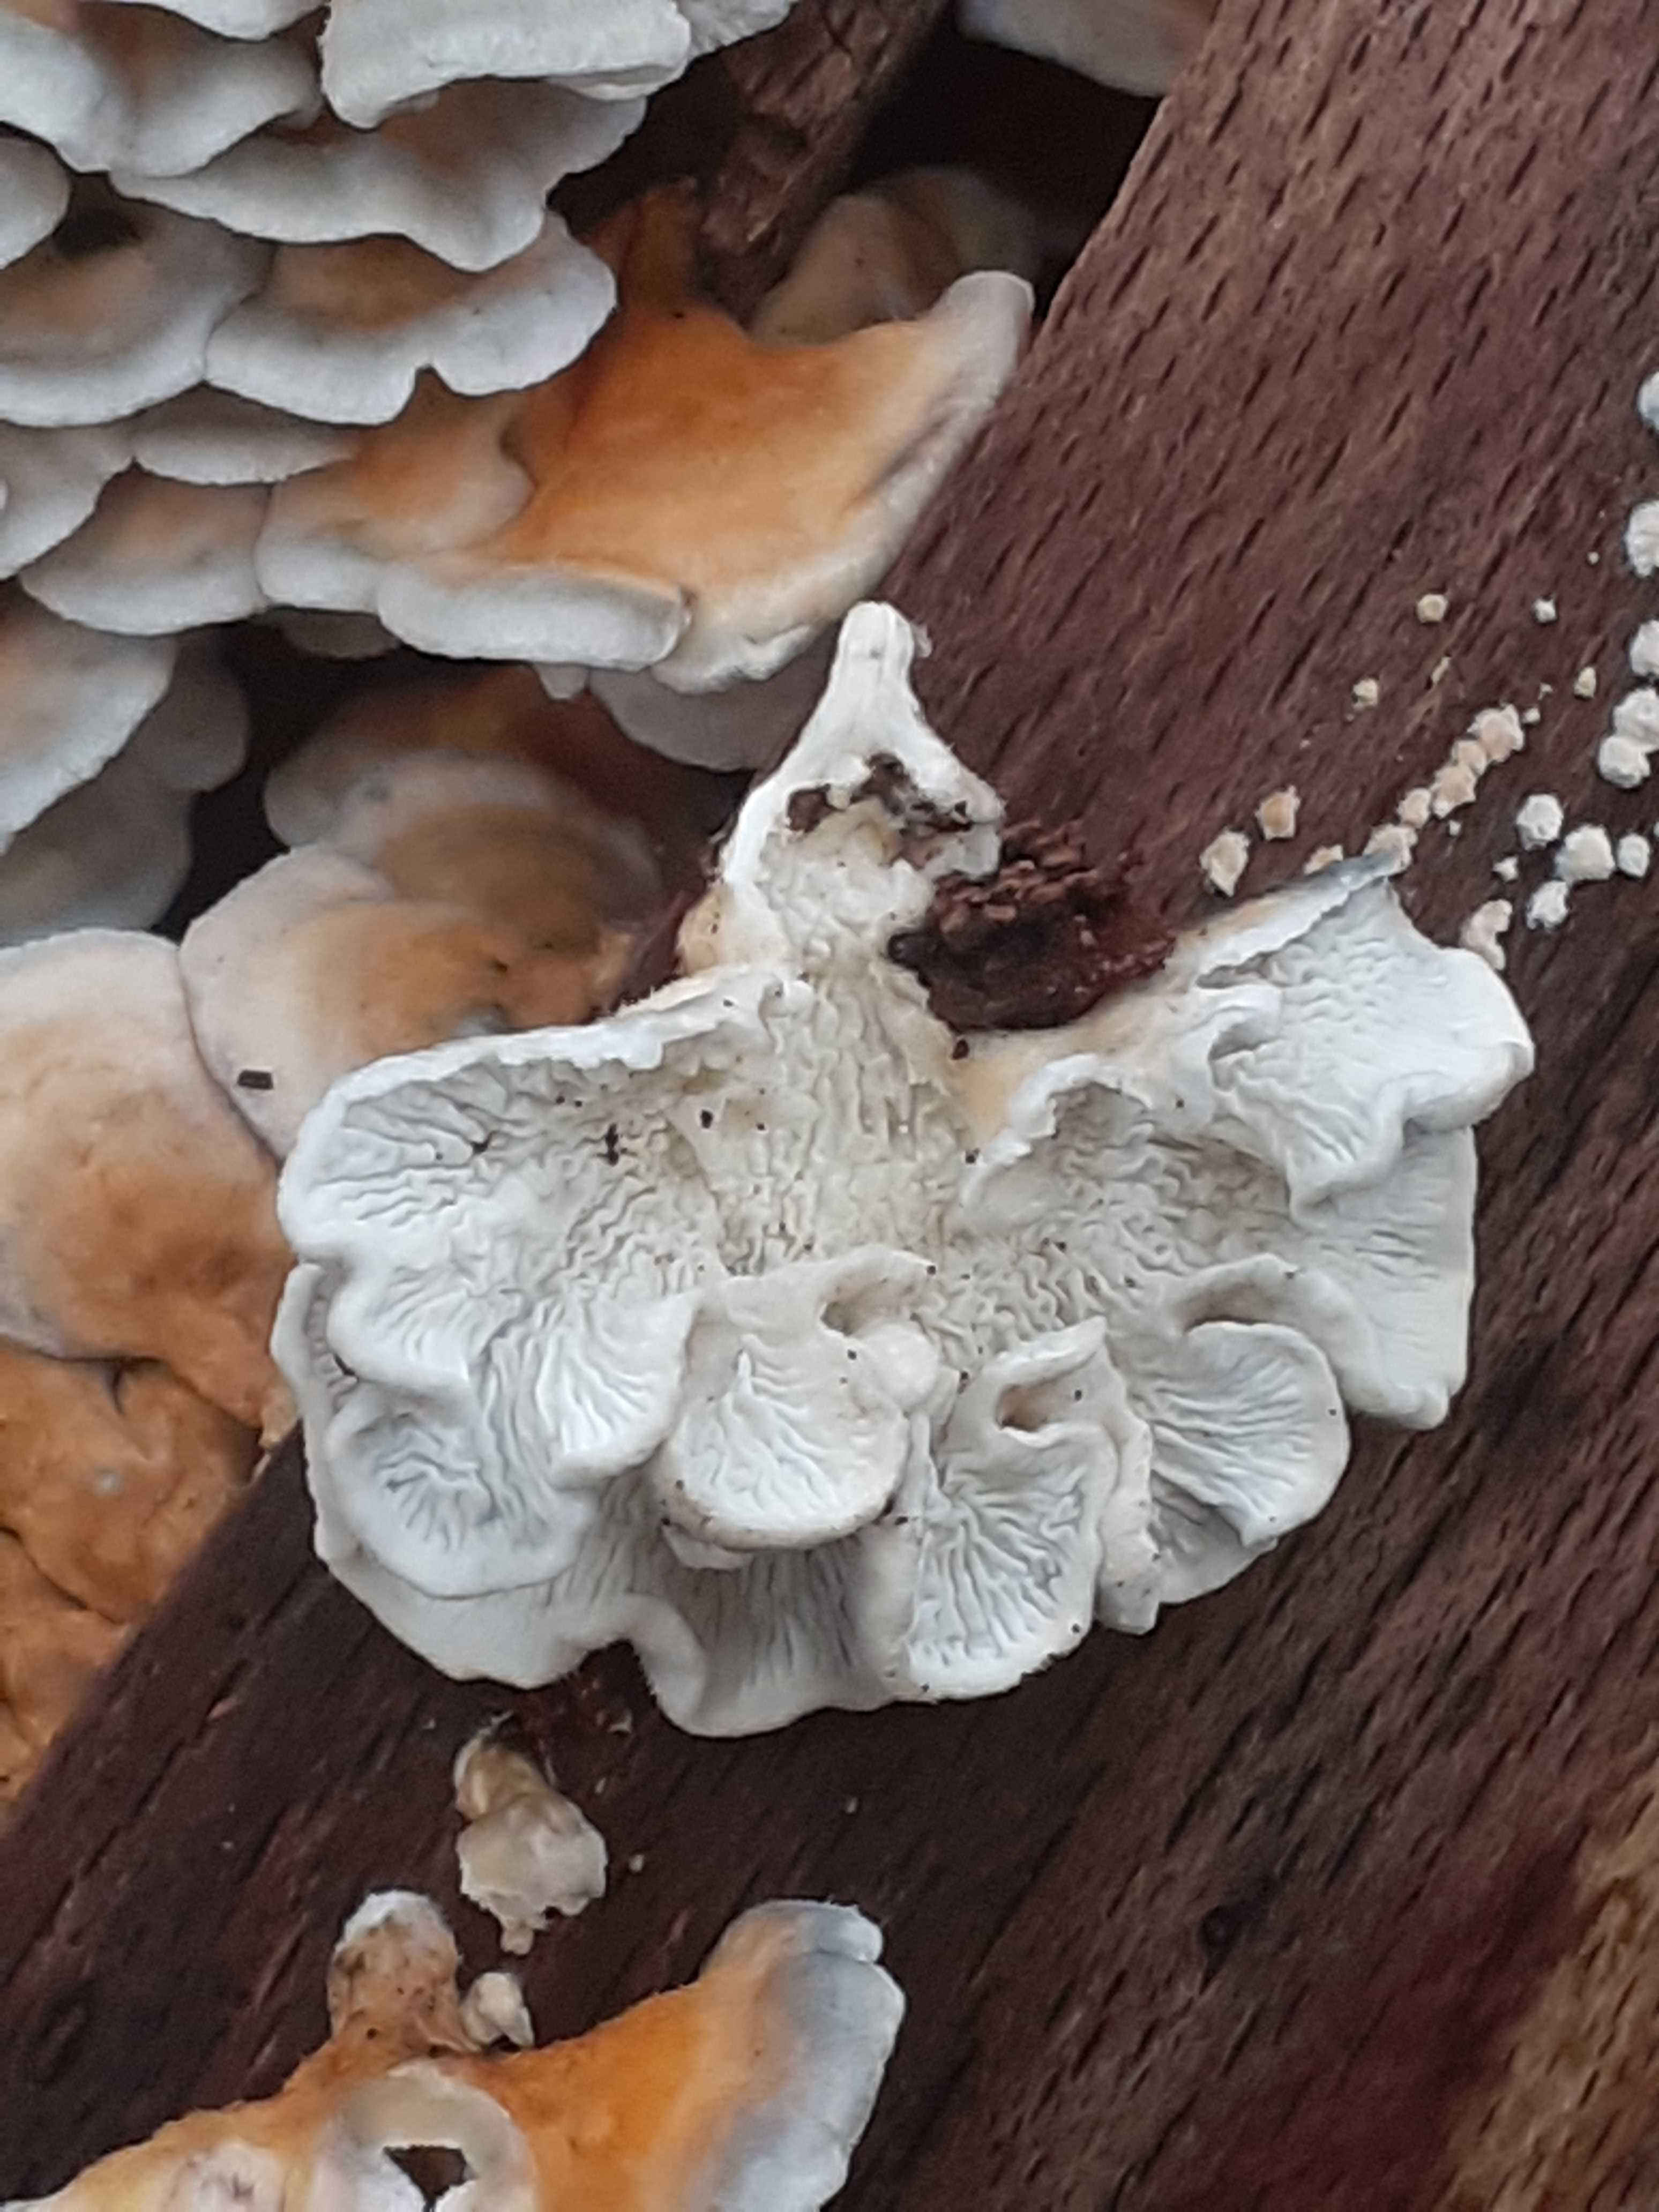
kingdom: Fungi
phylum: Basidiomycota
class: Agaricomycetes
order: Amylocorticiales
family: Amylocorticiaceae
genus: Plicaturopsis
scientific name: Plicaturopsis crispa
